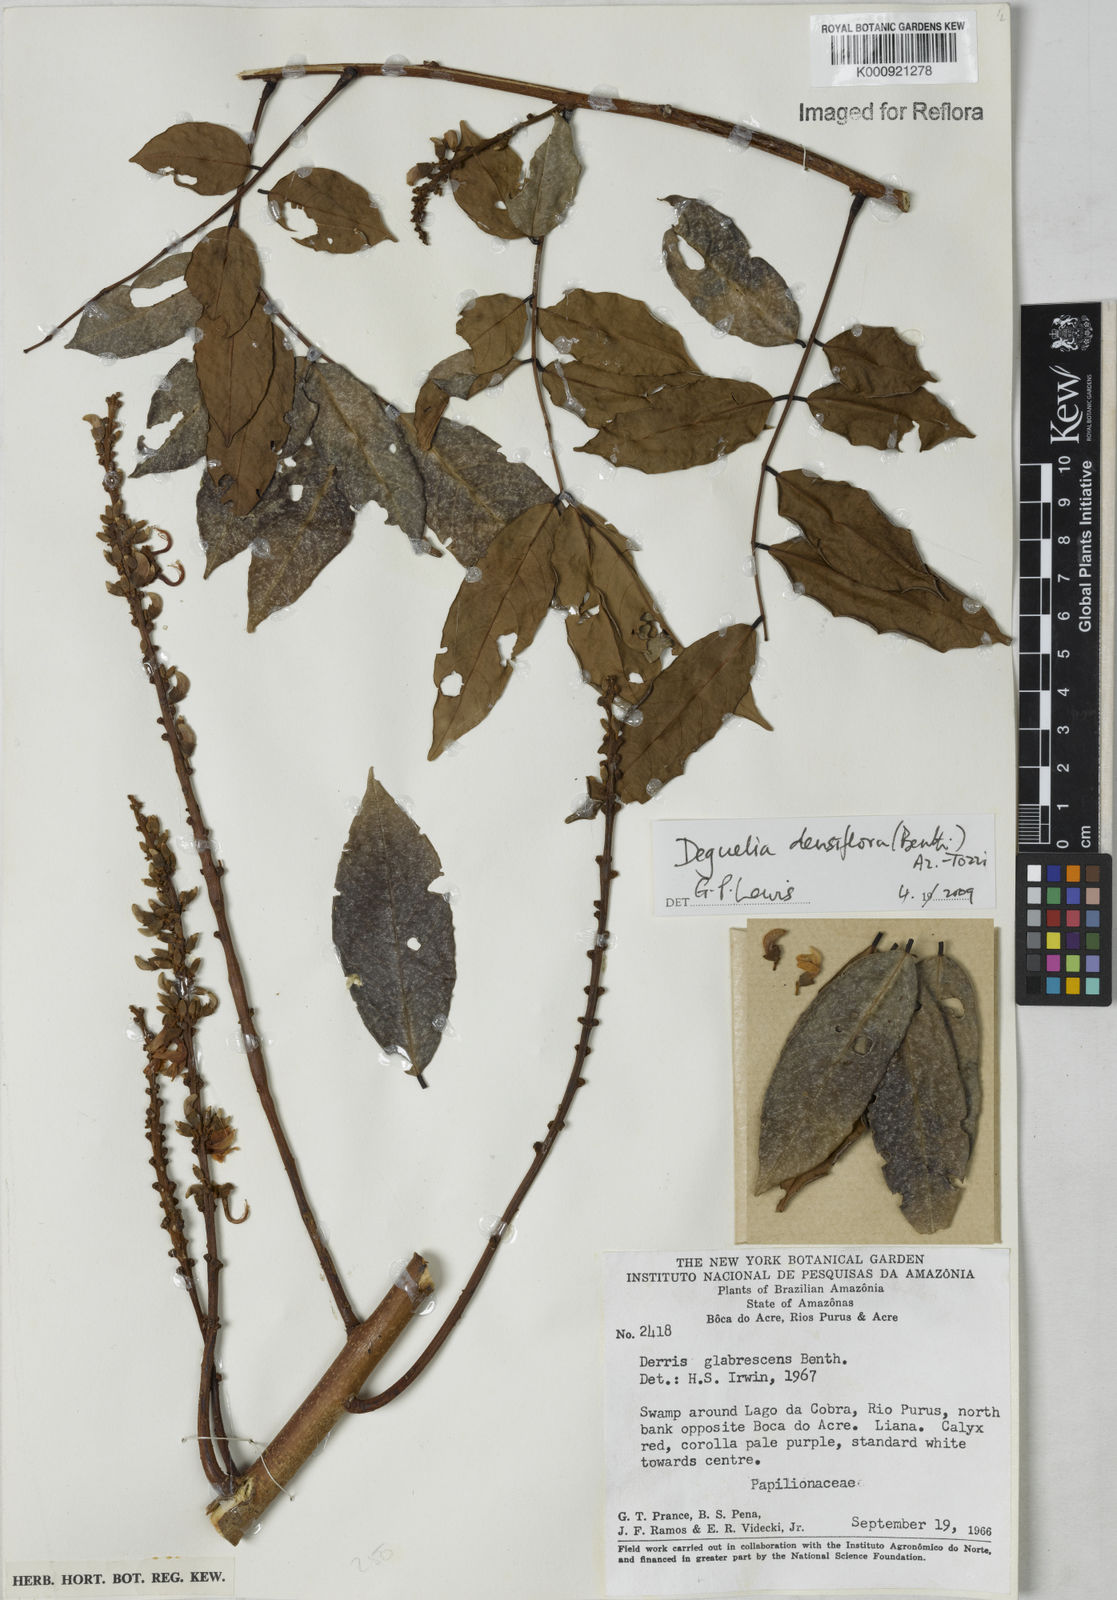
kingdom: Plantae
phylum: Tracheophyta
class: Magnoliopsida
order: Fabales
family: Fabaceae
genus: Deguelia
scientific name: Deguelia
